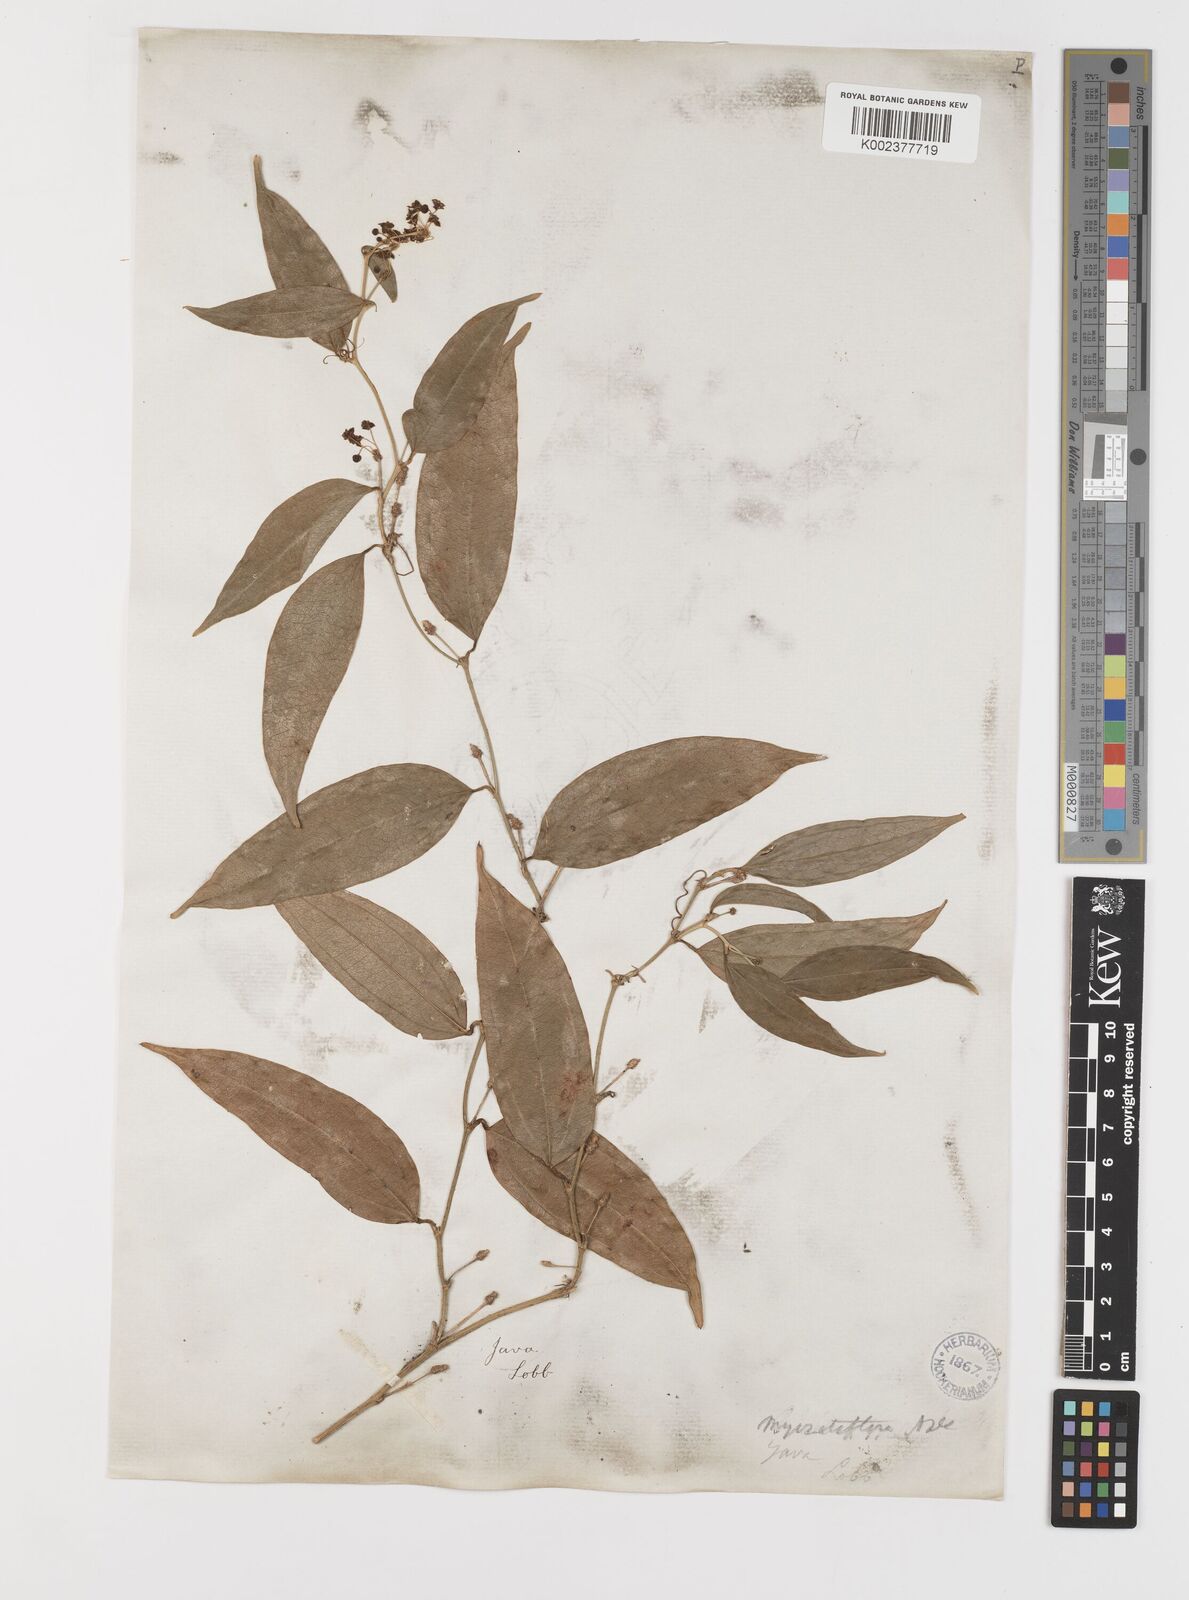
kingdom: Plantae
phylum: Tracheophyta
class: Liliopsida
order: Liliales
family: Smilacaceae
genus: Smilax
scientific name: Smilax myosotiflora
